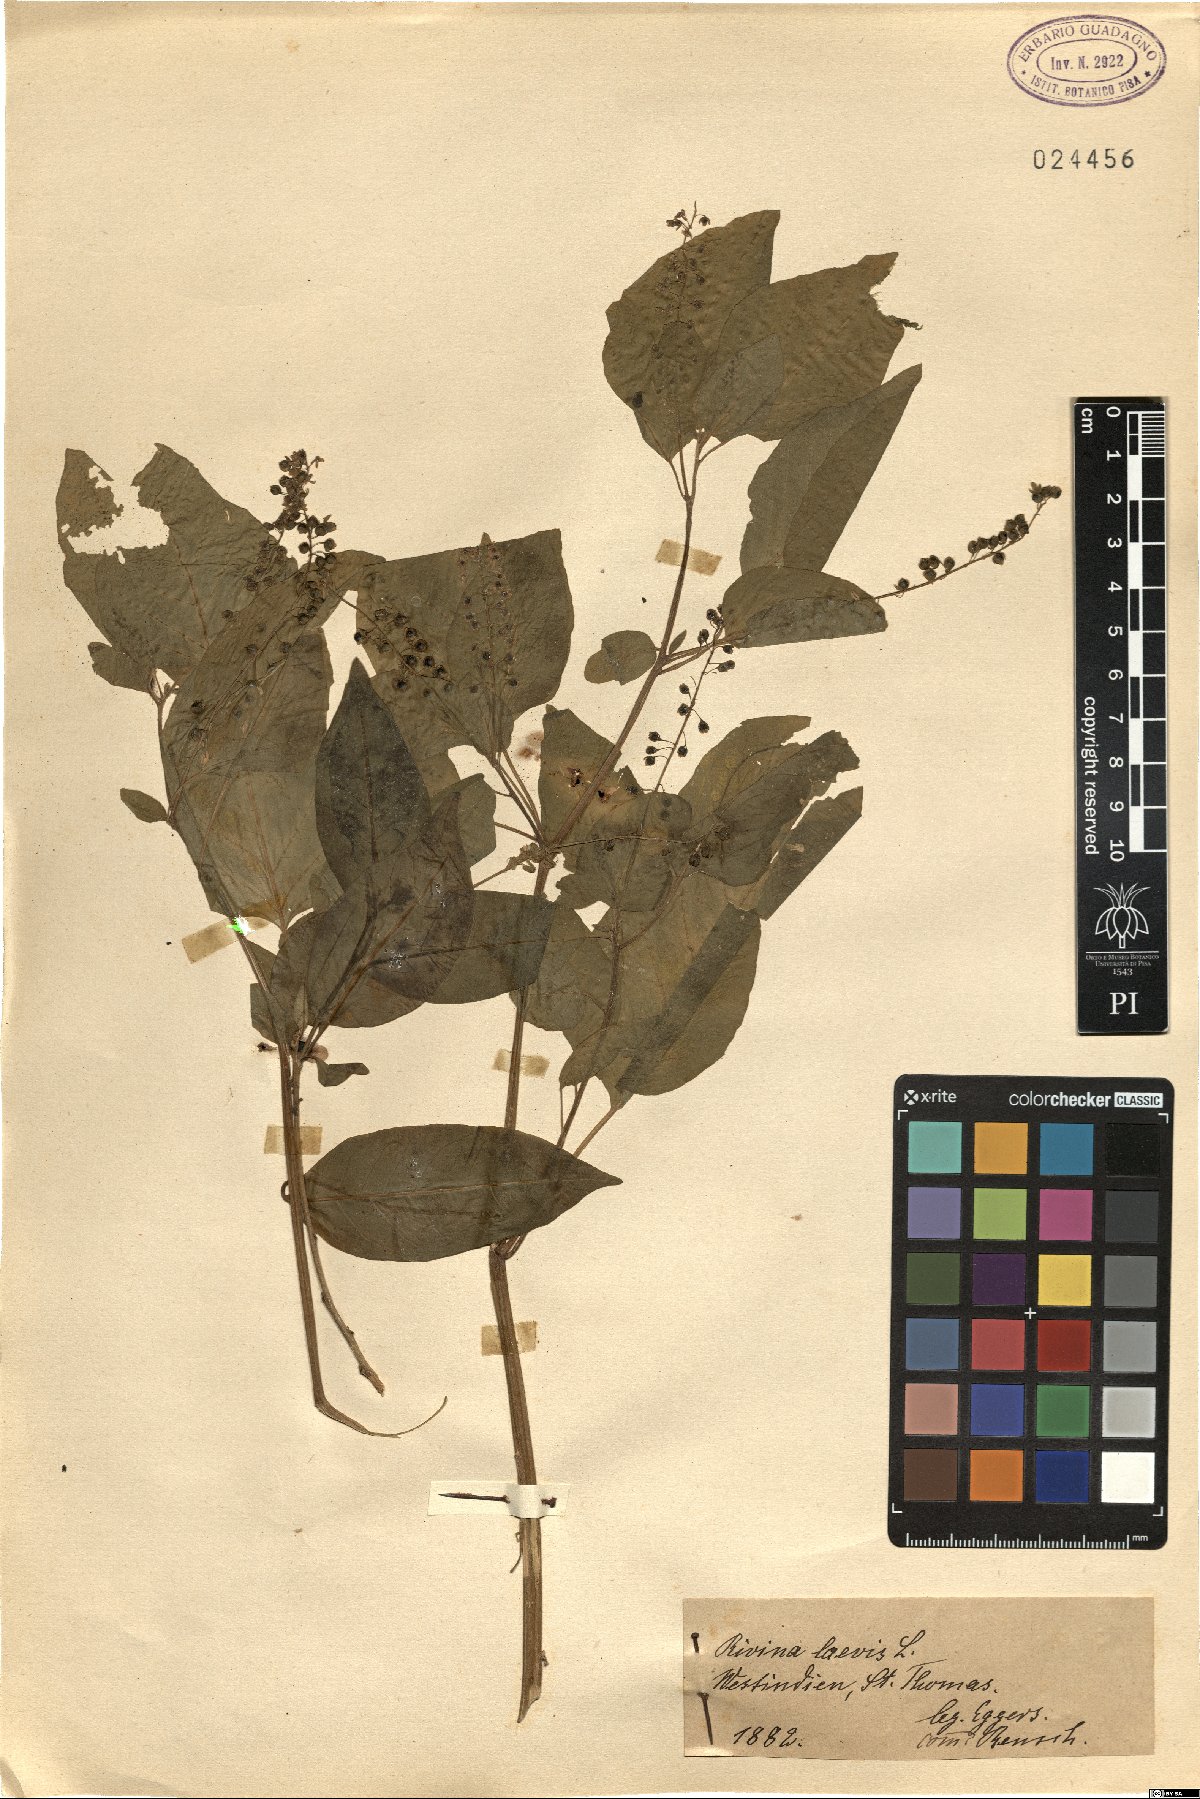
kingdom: Plantae
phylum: Tracheophyta
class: Magnoliopsida
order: Caryophyllales
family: Phytolaccaceae
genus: Rivina
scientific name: Rivina humilis
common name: Rougeplant
